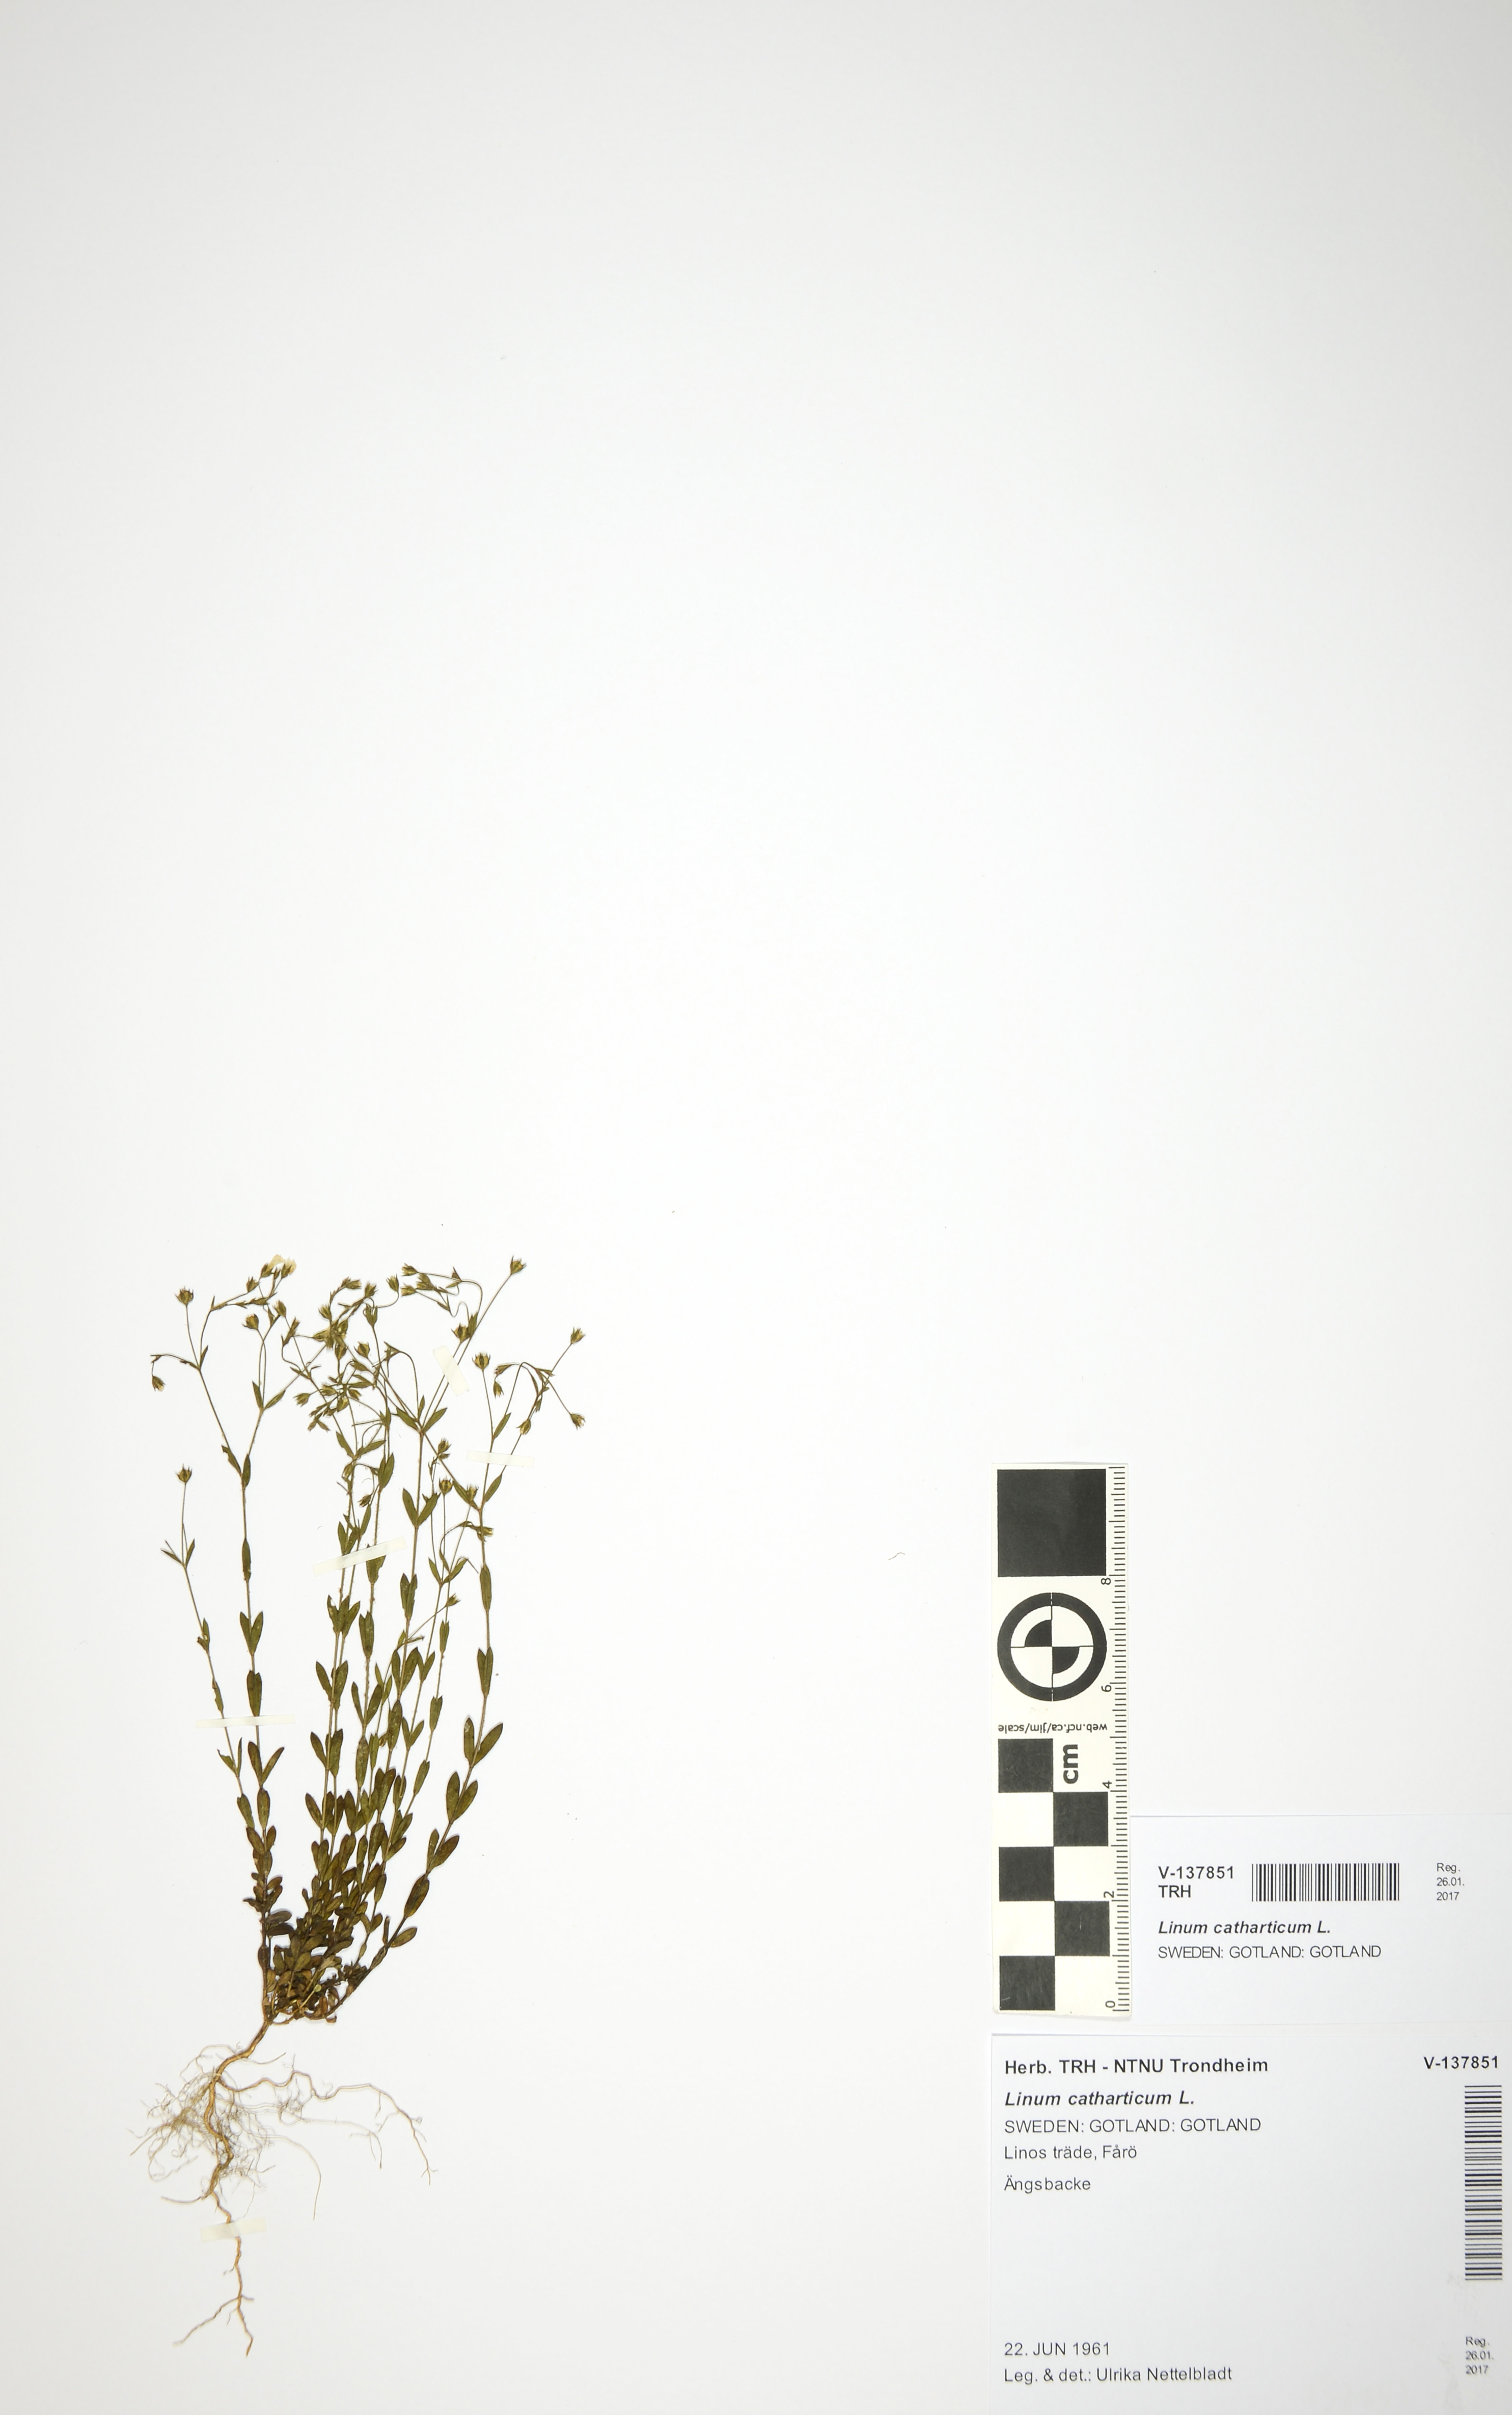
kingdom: Plantae
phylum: Tracheophyta
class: Magnoliopsida
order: Malpighiales
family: Linaceae
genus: Linum
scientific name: Linum catharticum
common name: Fairy flax
